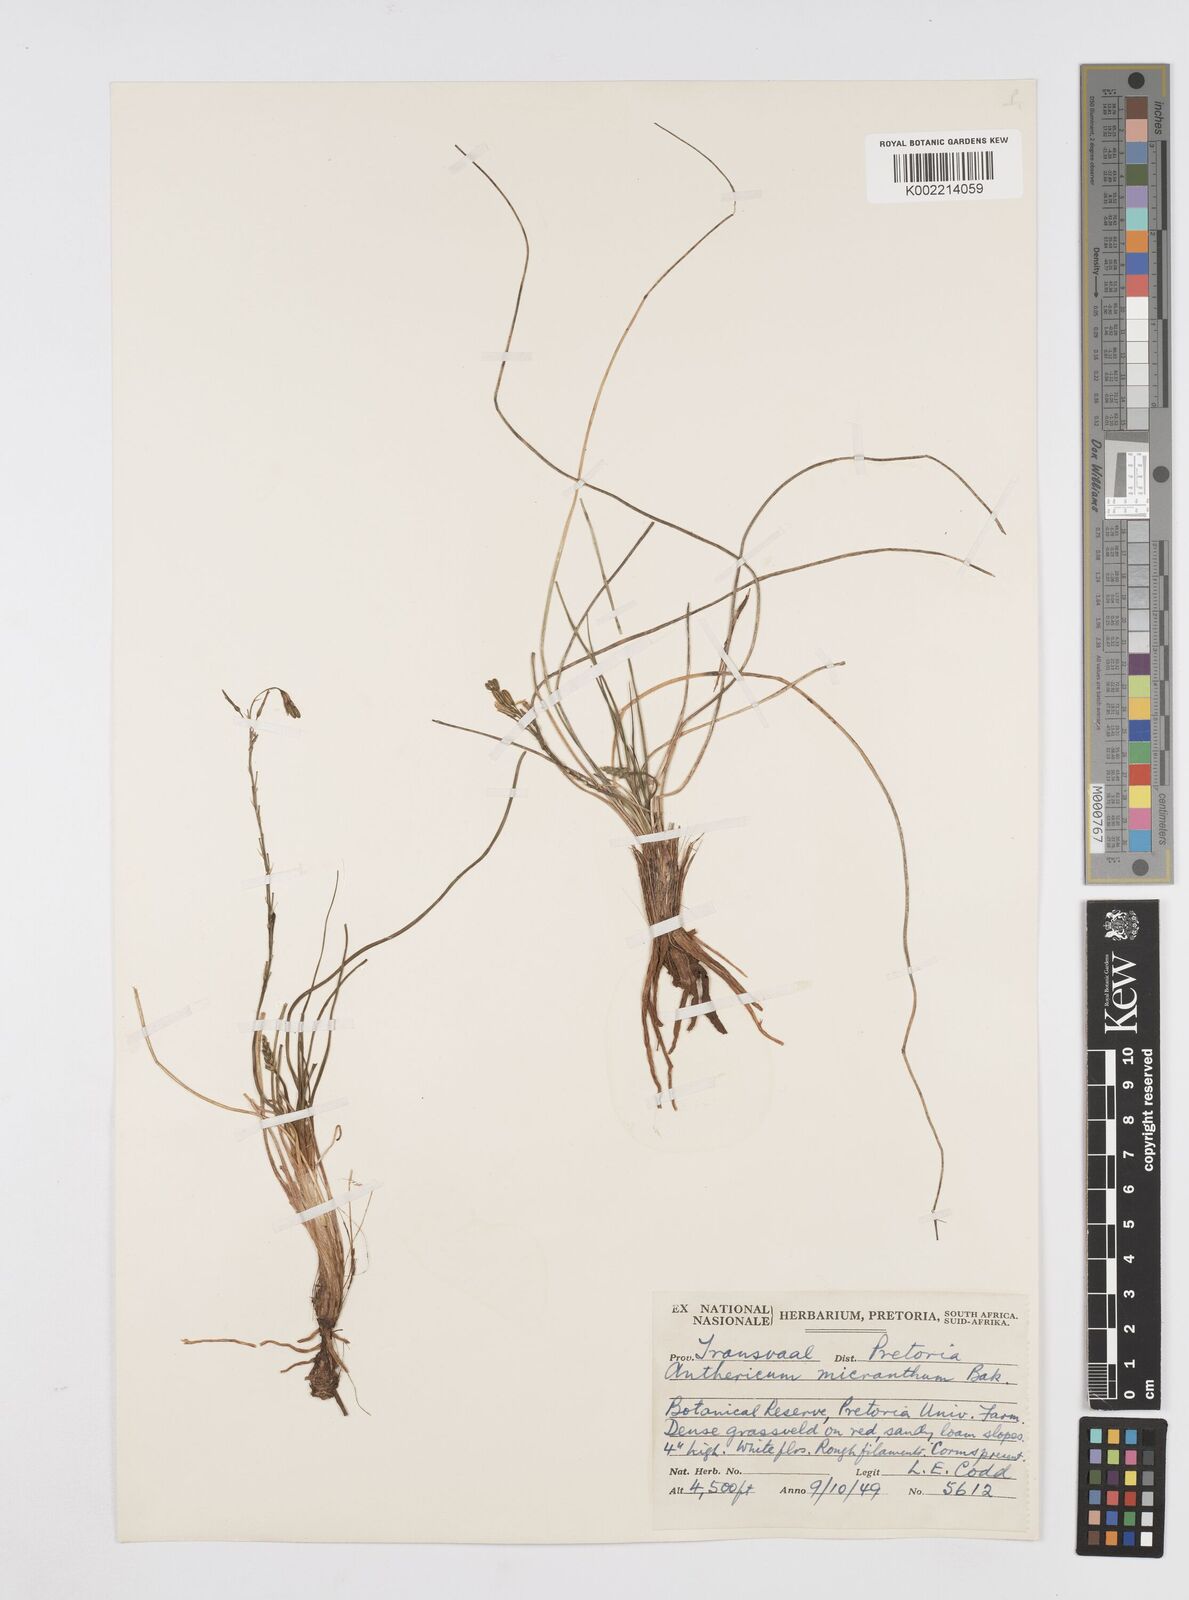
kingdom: Plantae
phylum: Tracheophyta
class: Liliopsida
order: Asparagales
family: Asphodelaceae
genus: Trachyandra
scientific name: Trachyandra
